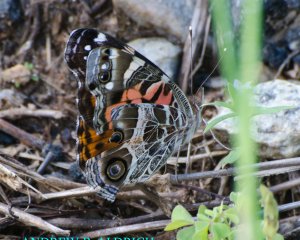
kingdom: Animalia
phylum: Arthropoda
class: Insecta
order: Lepidoptera
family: Nymphalidae
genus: Vanessa
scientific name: Vanessa virginiensis
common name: American Lady
